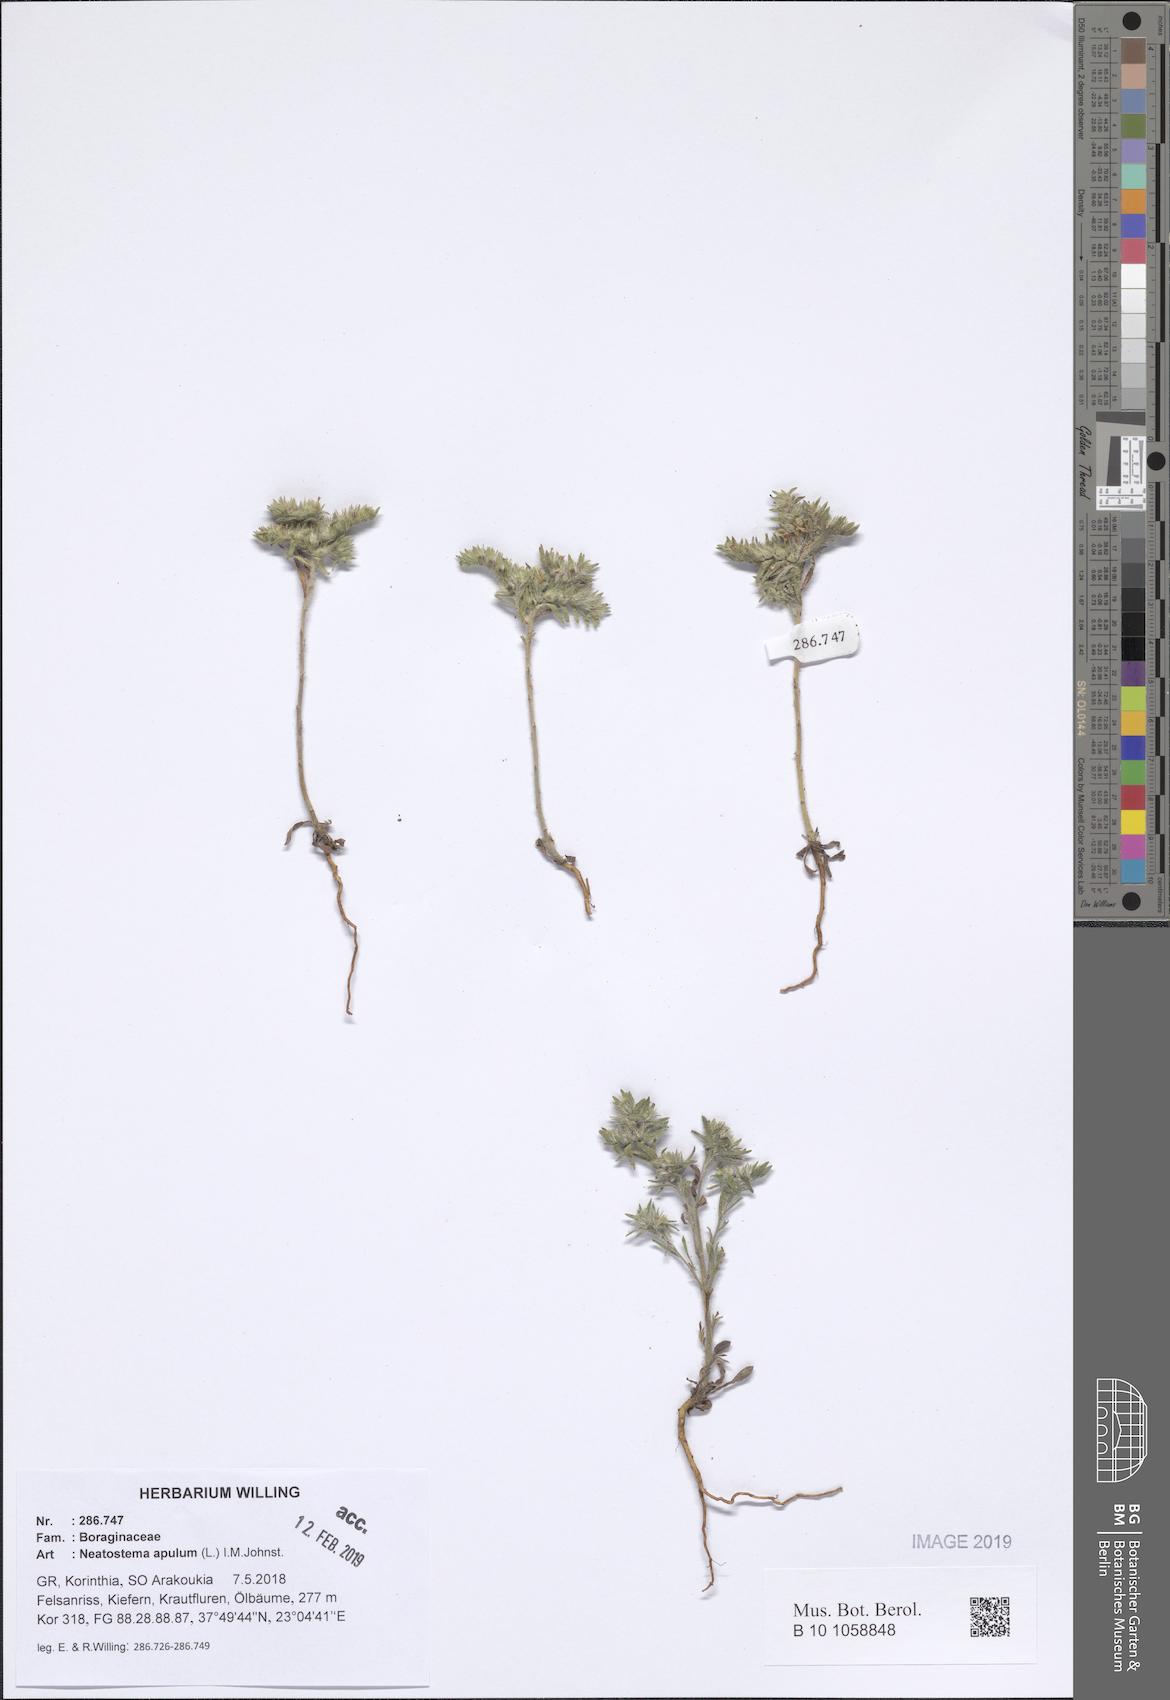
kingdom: Plantae
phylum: Tracheophyta
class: Magnoliopsida
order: Boraginales
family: Boraginaceae
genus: Neatostema
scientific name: Neatostema apulum
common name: Hairy sheepweed
